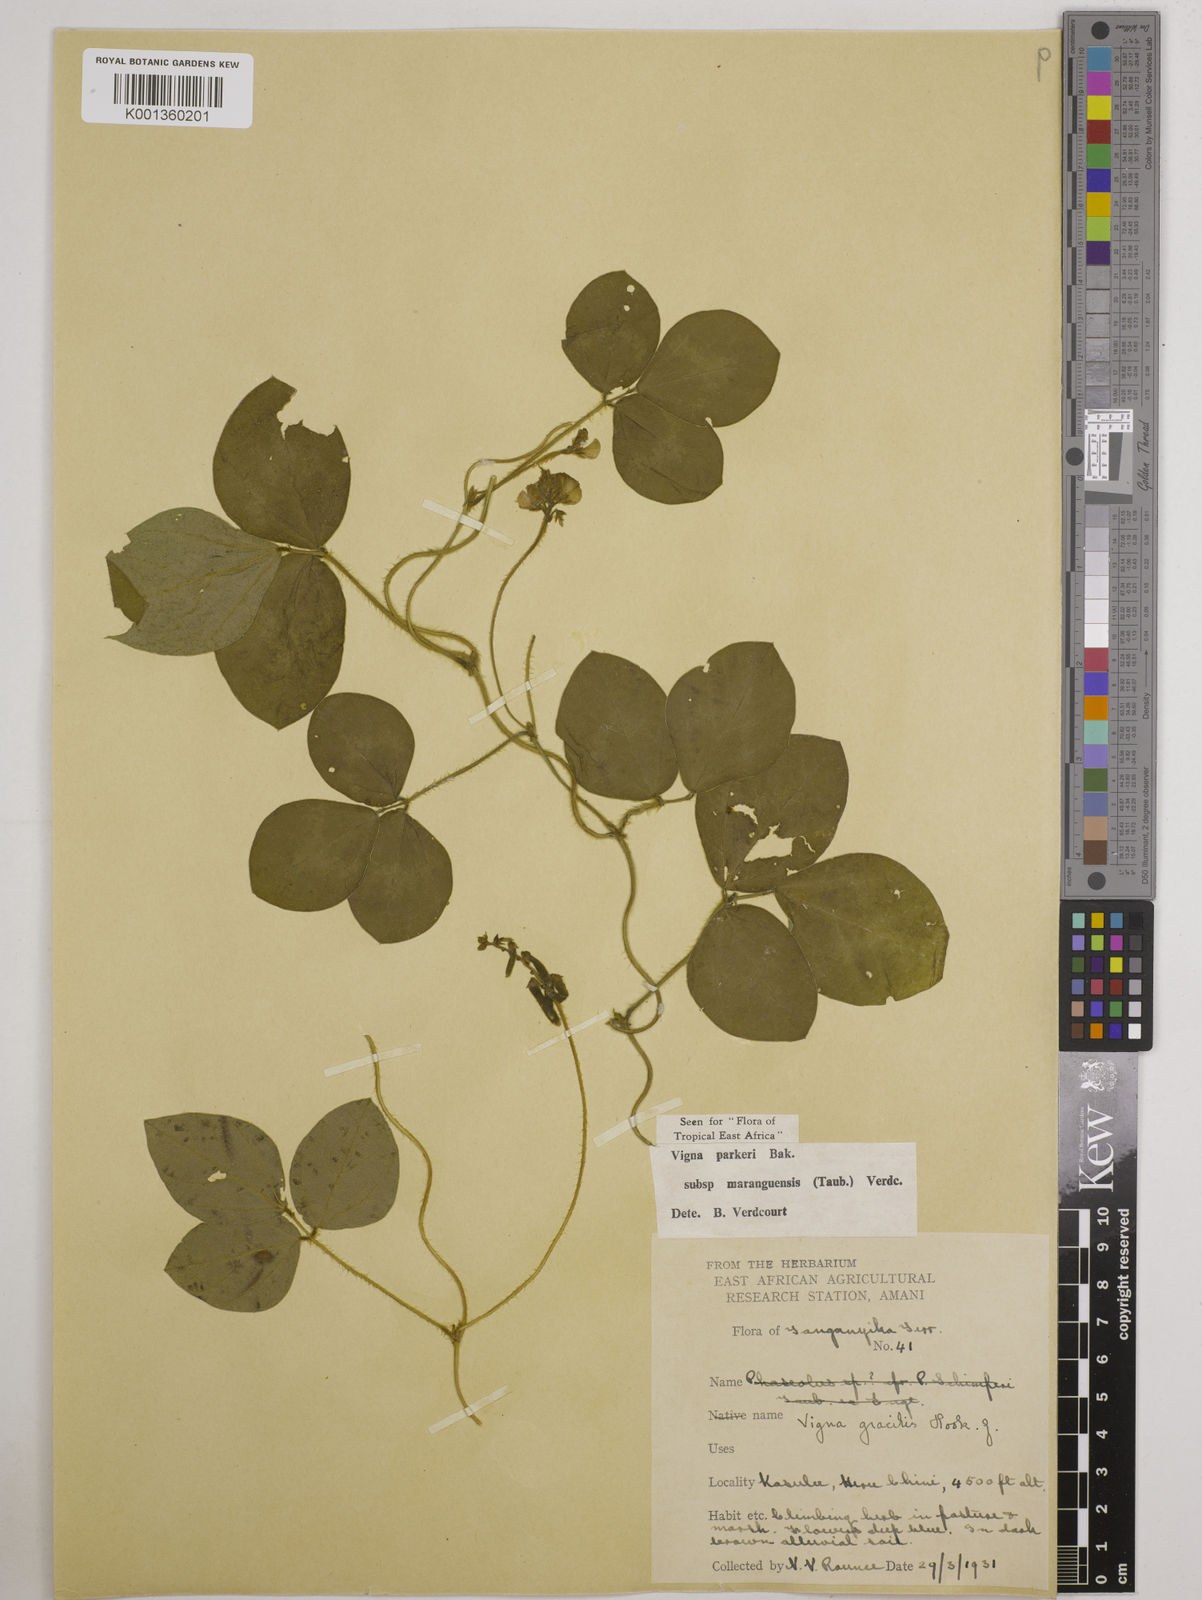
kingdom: Plantae
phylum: Tracheophyta
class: Magnoliopsida
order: Fabales
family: Fabaceae
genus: Vigna
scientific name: Vigna
